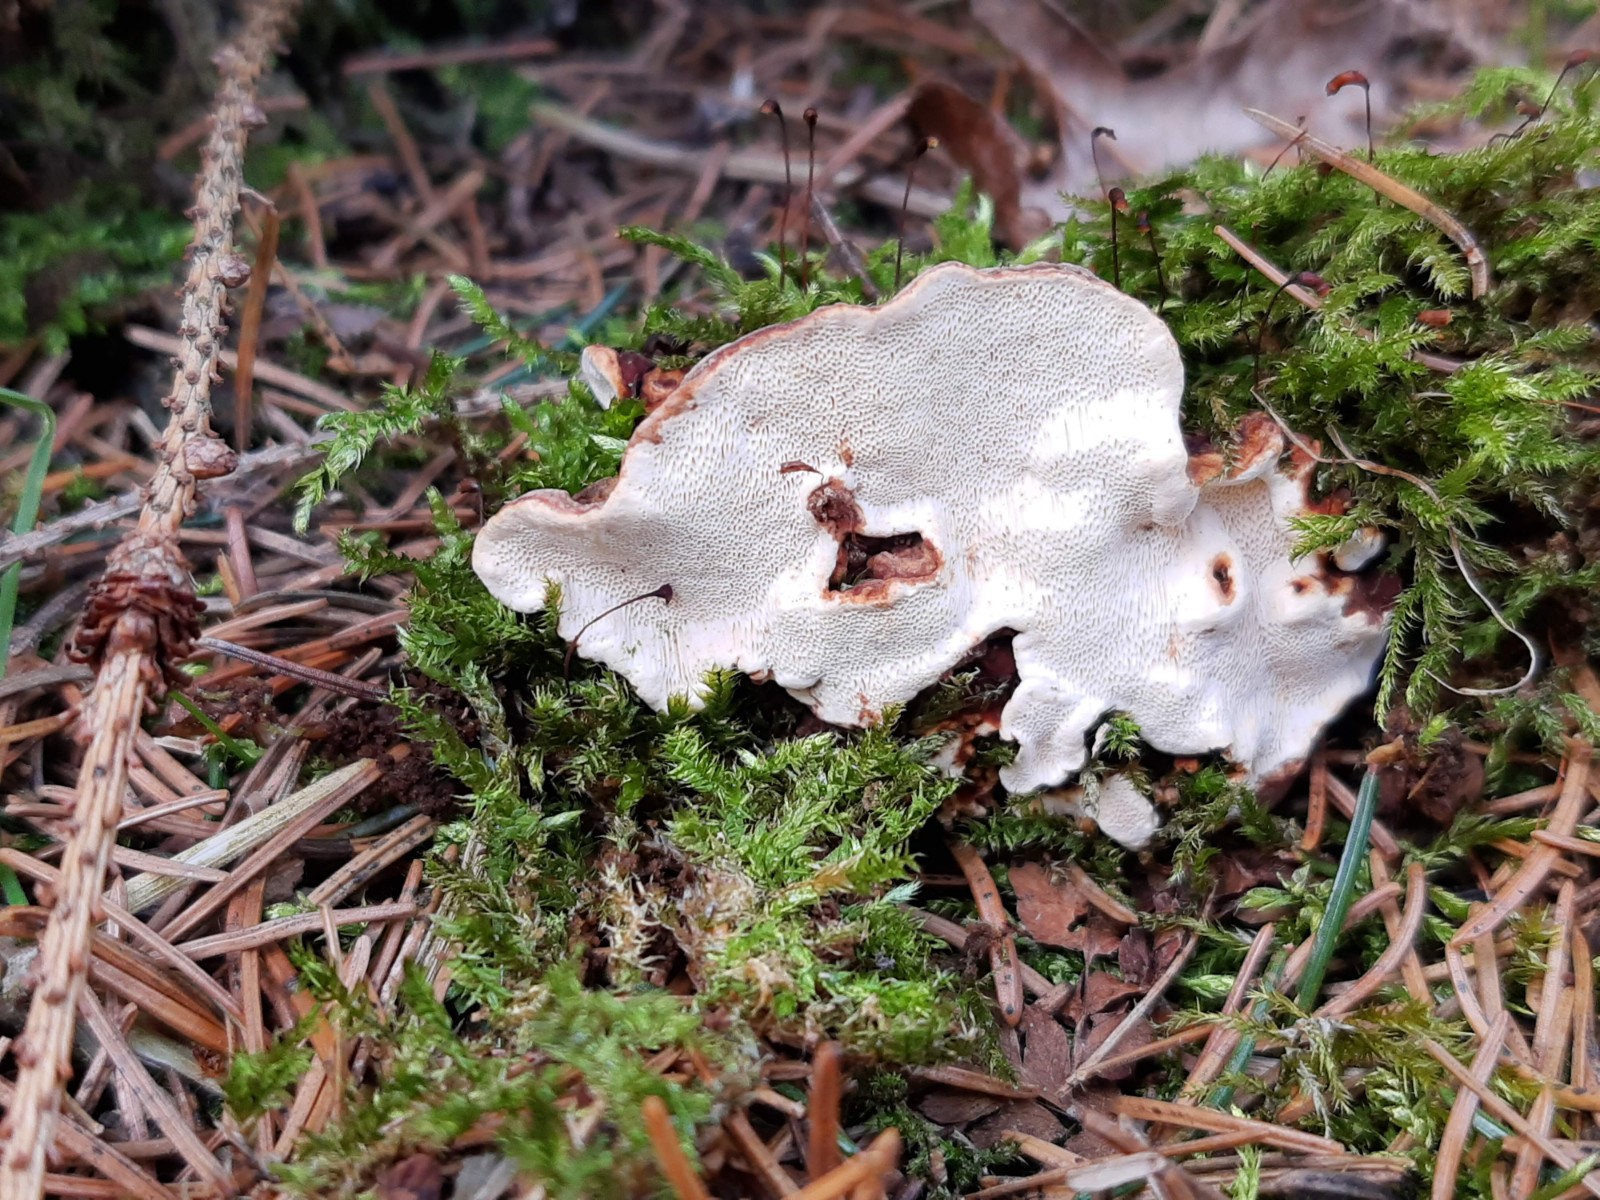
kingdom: Fungi
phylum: Basidiomycota
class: Agaricomycetes
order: Russulales
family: Bondarzewiaceae
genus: Heterobasidion
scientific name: Heterobasidion annosum
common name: almindelig rodfordærver
